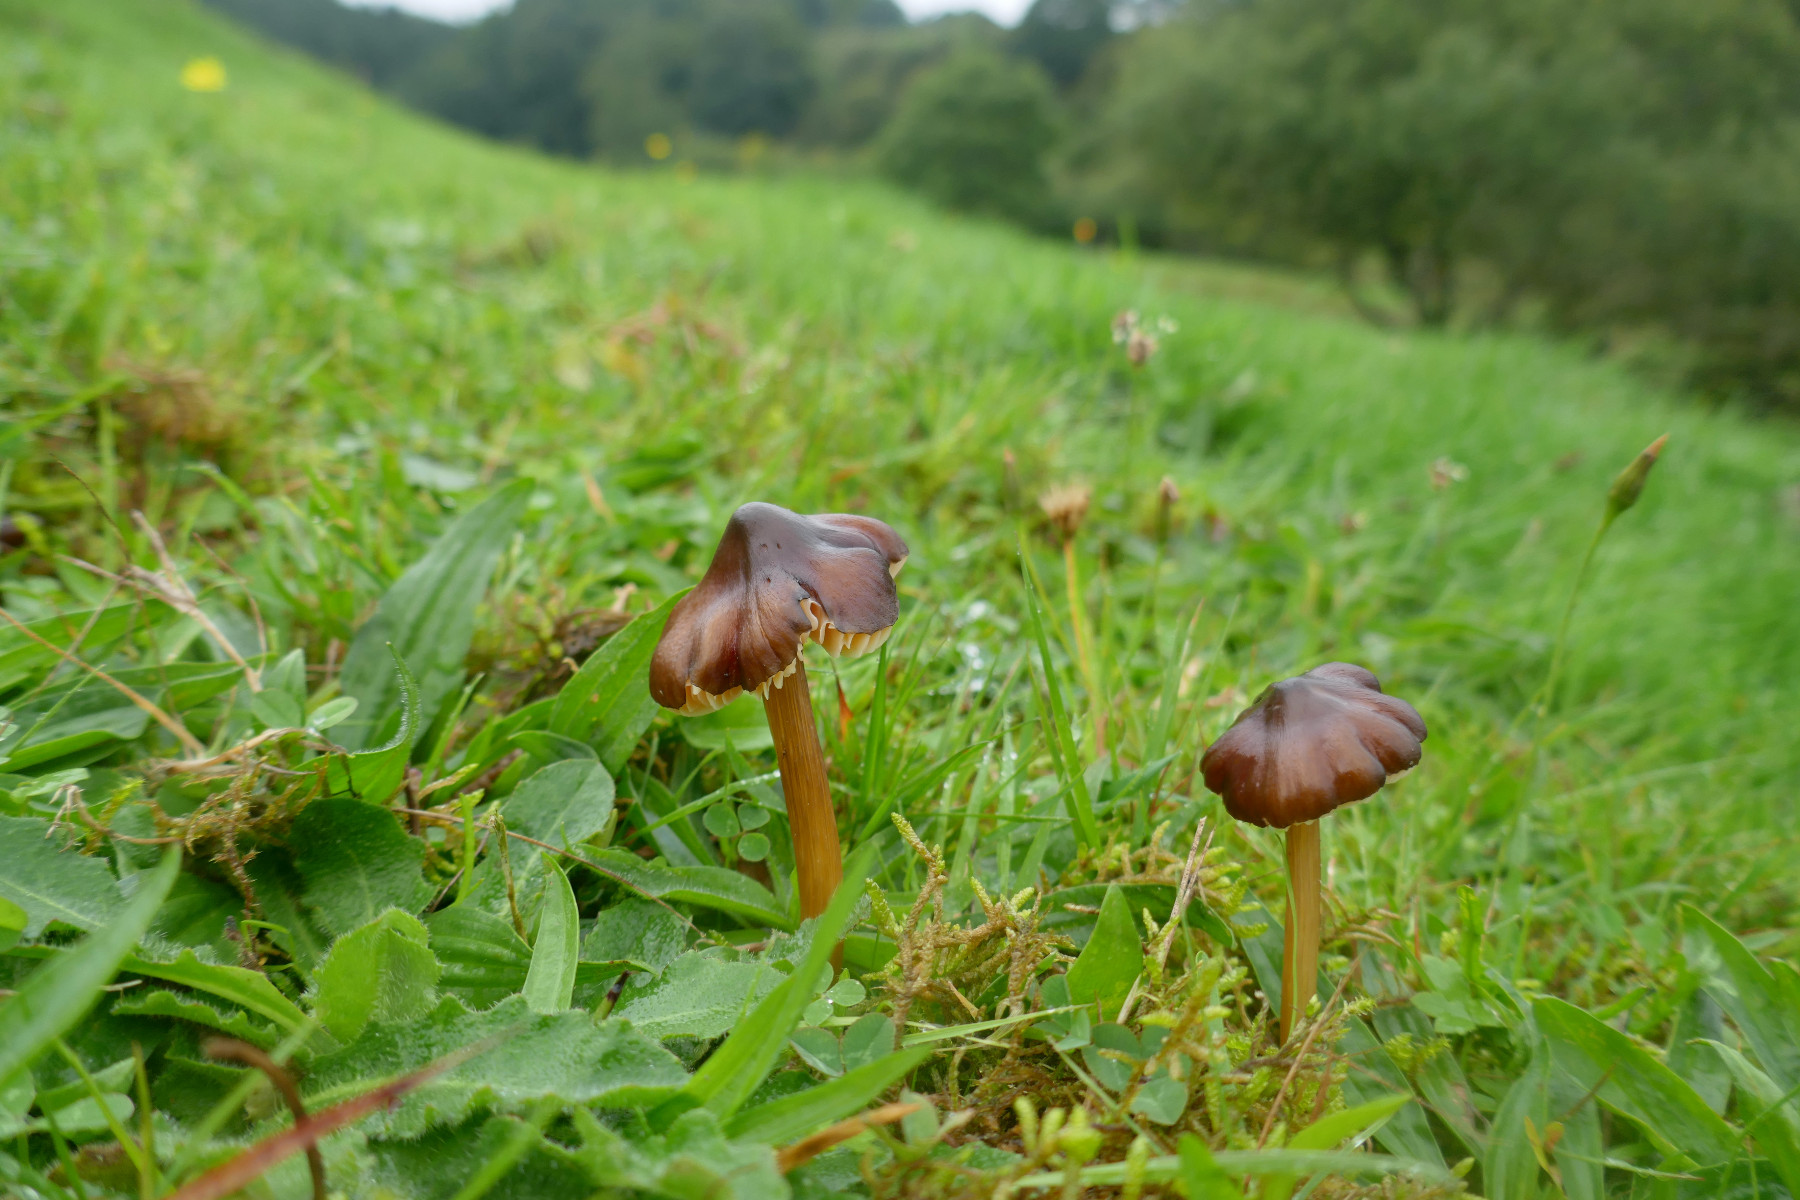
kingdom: Fungi
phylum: Basidiomycota
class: Agaricomycetes
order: Agaricales
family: Hygrophoraceae
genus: Hygrocybe
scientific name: Hygrocybe spadicea
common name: daddelbrun vokshat
